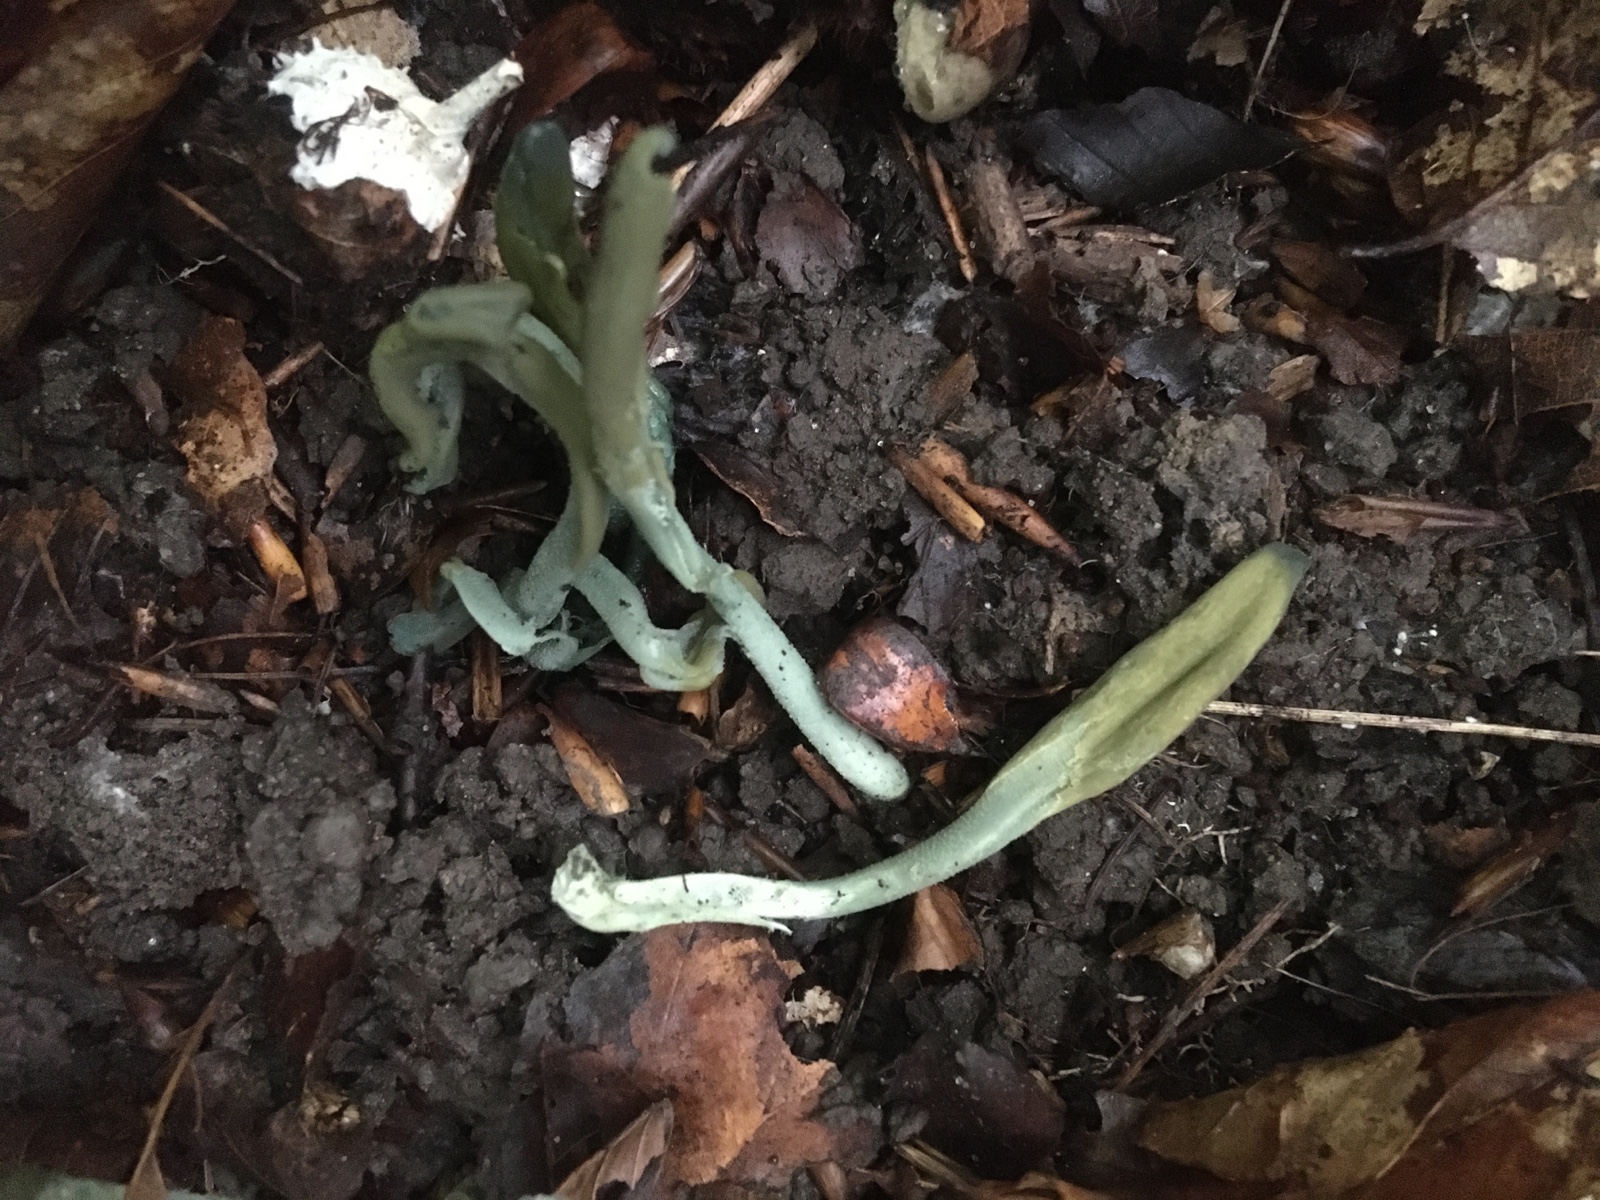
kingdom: Fungi
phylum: Ascomycota
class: Leotiomycetes
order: Leotiales
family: Leotiaceae
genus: Microglossum
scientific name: Microglossum griseoviride
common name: grågrøn farvetunge
